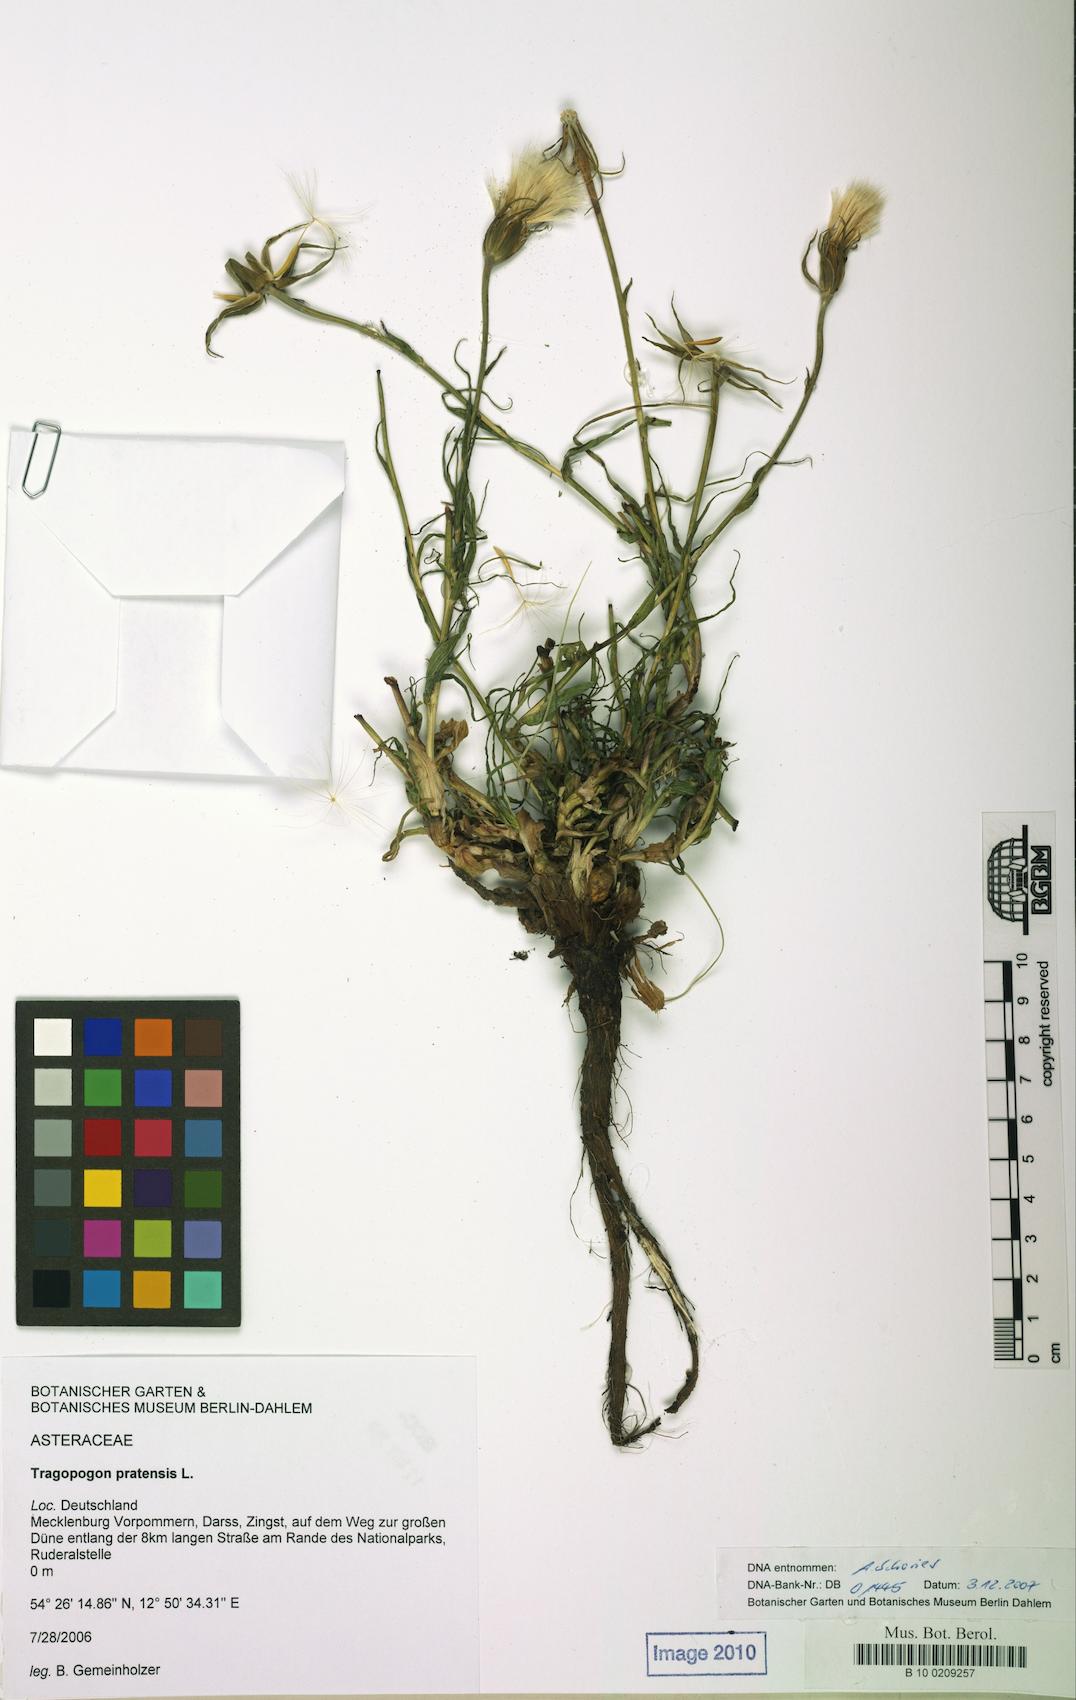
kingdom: Plantae
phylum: Tracheophyta
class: Magnoliopsida
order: Asterales
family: Asteraceae
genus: Tragopogon
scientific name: Tragopogon pratensis
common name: Goat's-beard
